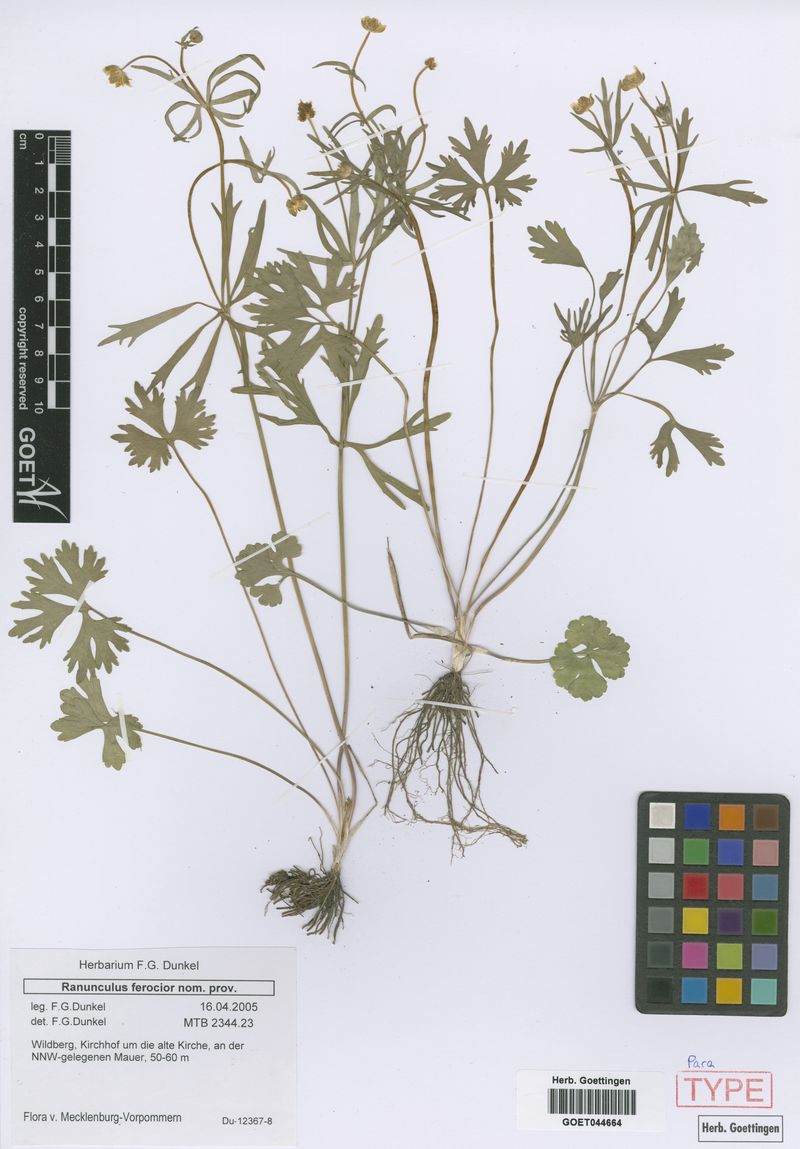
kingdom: Plantae
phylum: Tracheophyta
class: Magnoliopsida
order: Ranunculales
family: Ranunculaceae
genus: Ranunculus
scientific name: Ranunculus ferocior
